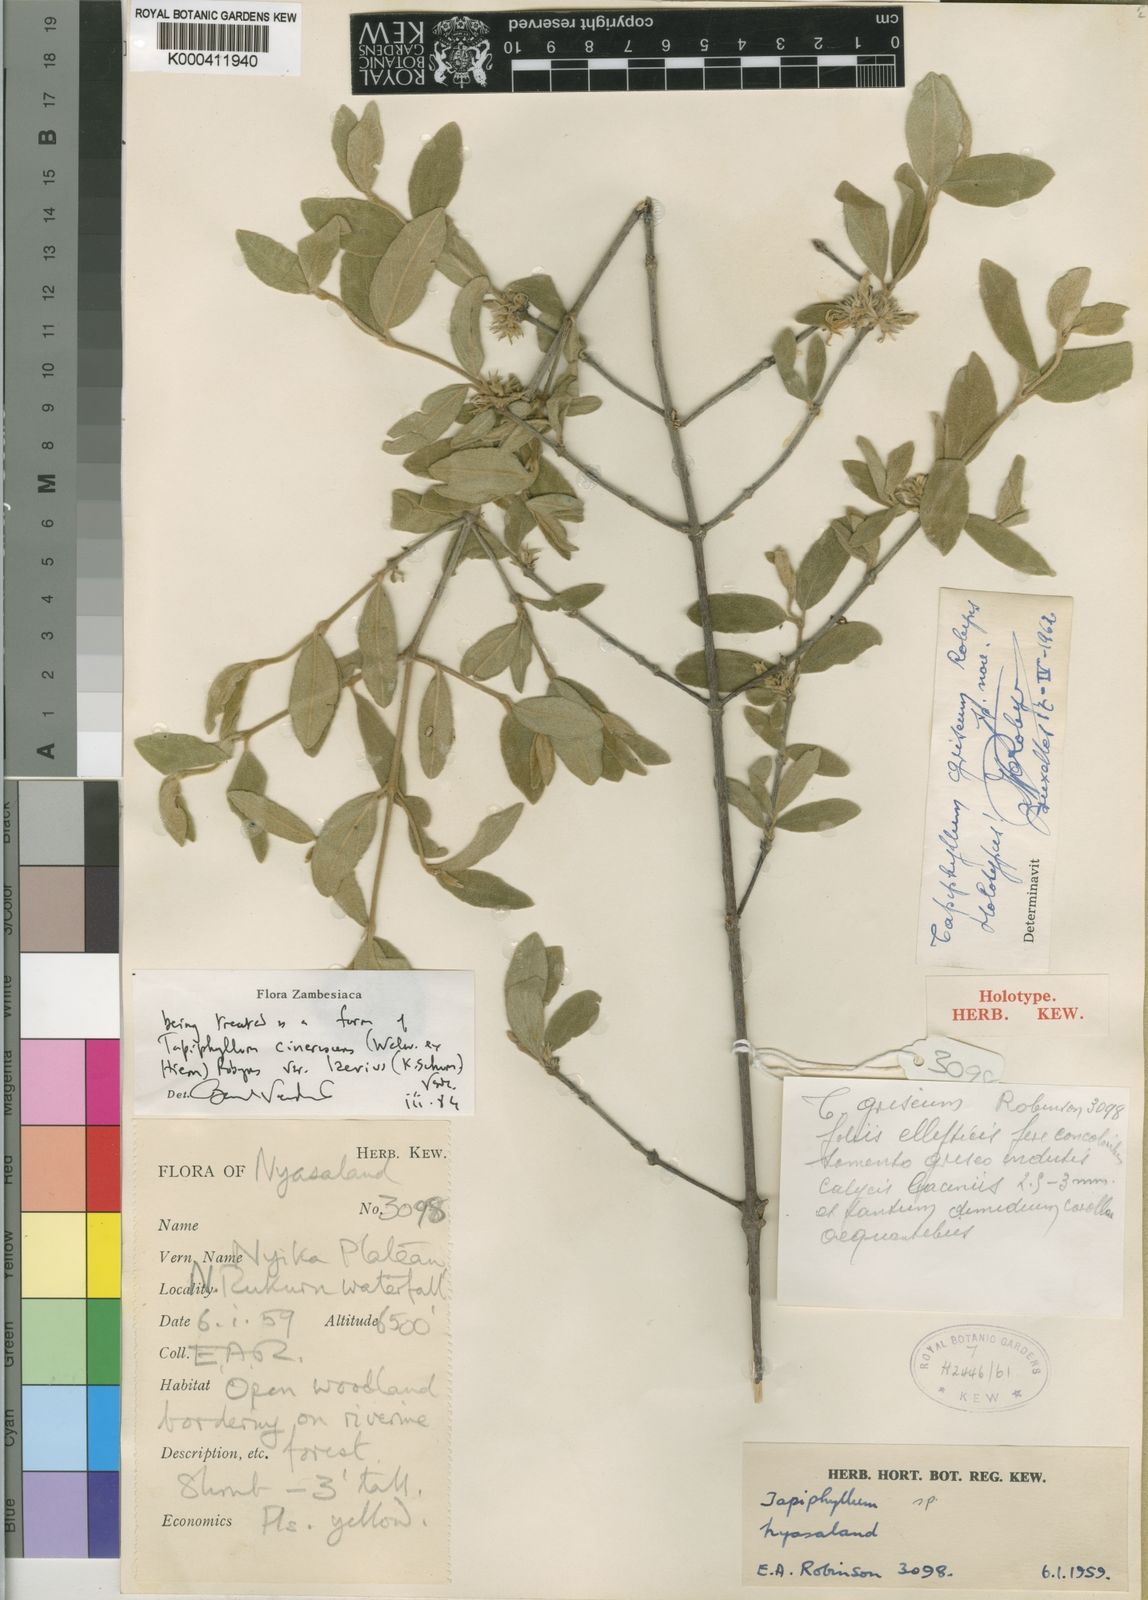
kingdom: Plantae
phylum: Tracheophyta
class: Magnoliopsida
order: Gentianales
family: Rubiaceae
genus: Vangueria
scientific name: Vangueria cinerascens
